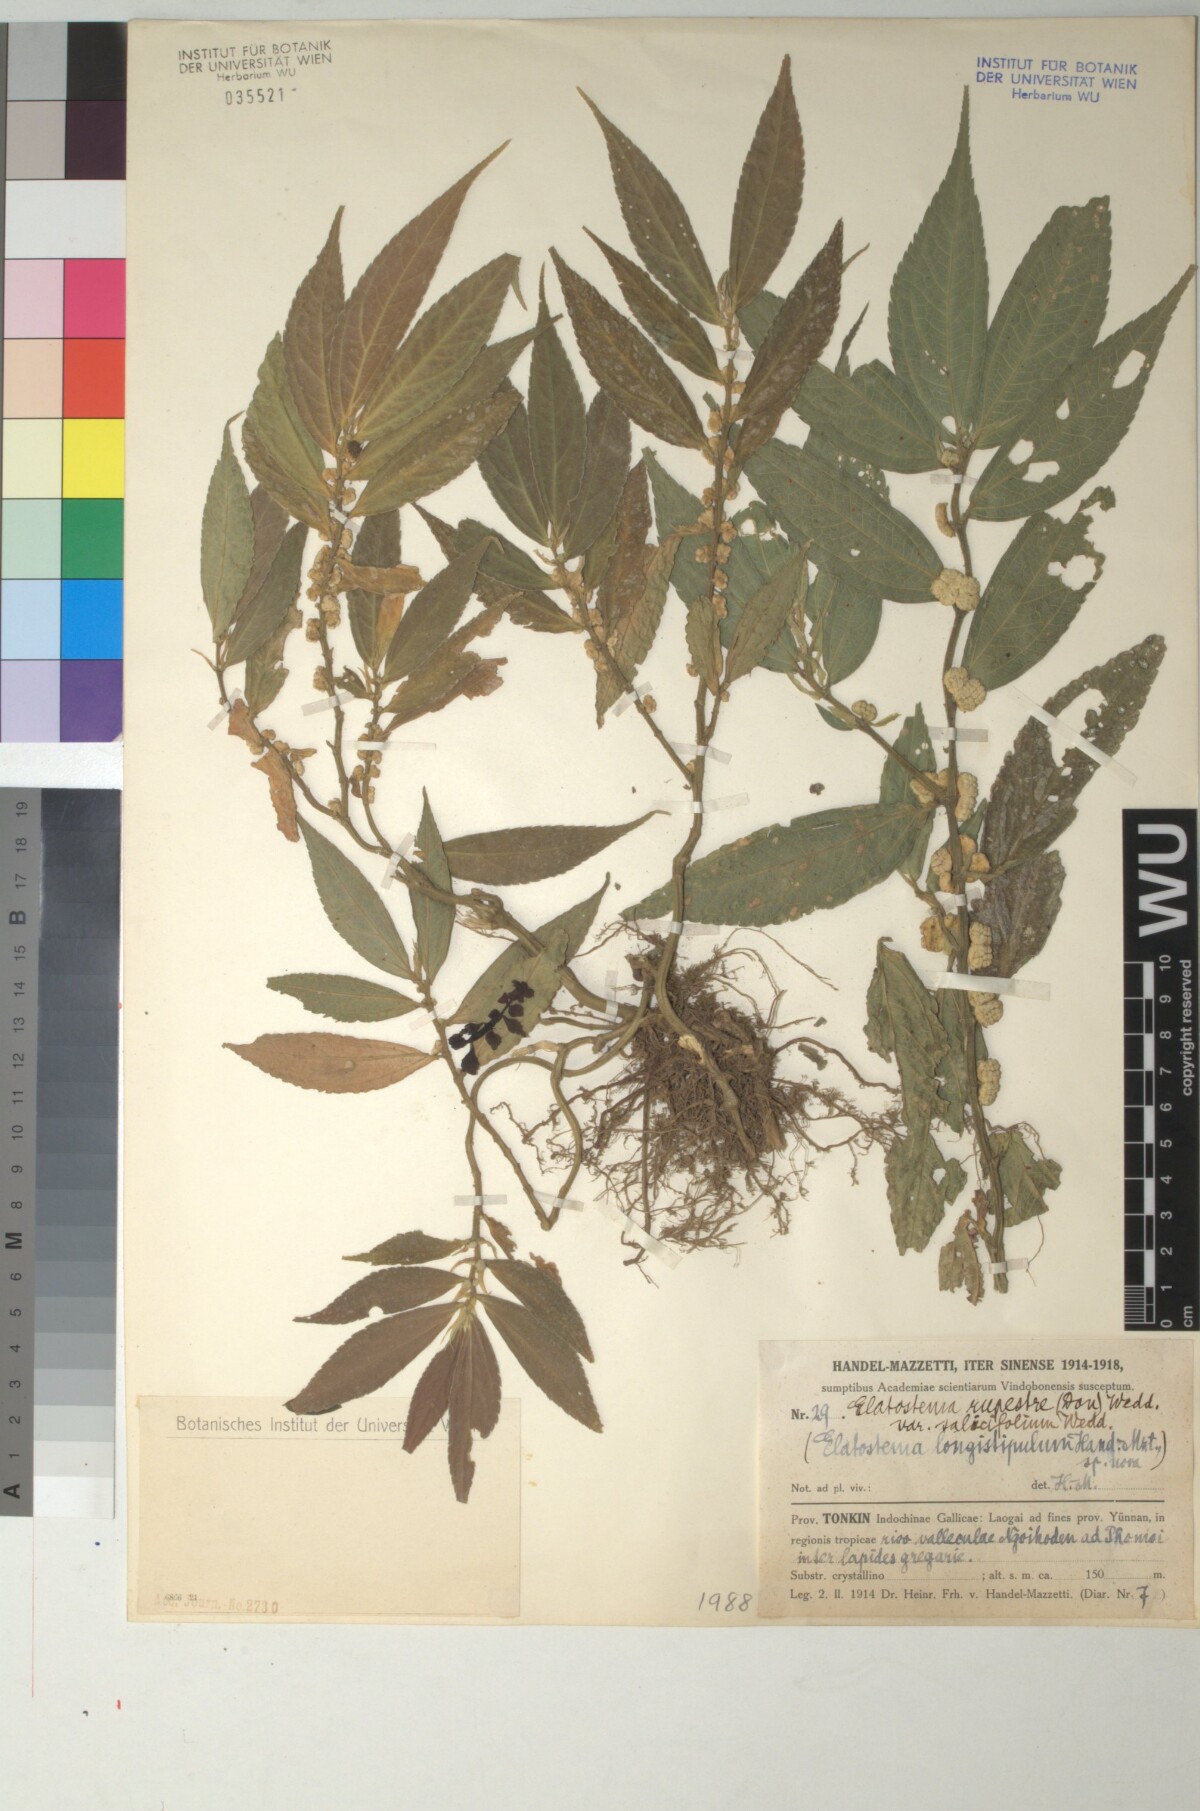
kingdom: Plantae
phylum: Tracheophyta
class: Magnoliopsida
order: Rosales
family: Urticaceae
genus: Elatostema
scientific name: Elatostema longistipulum
